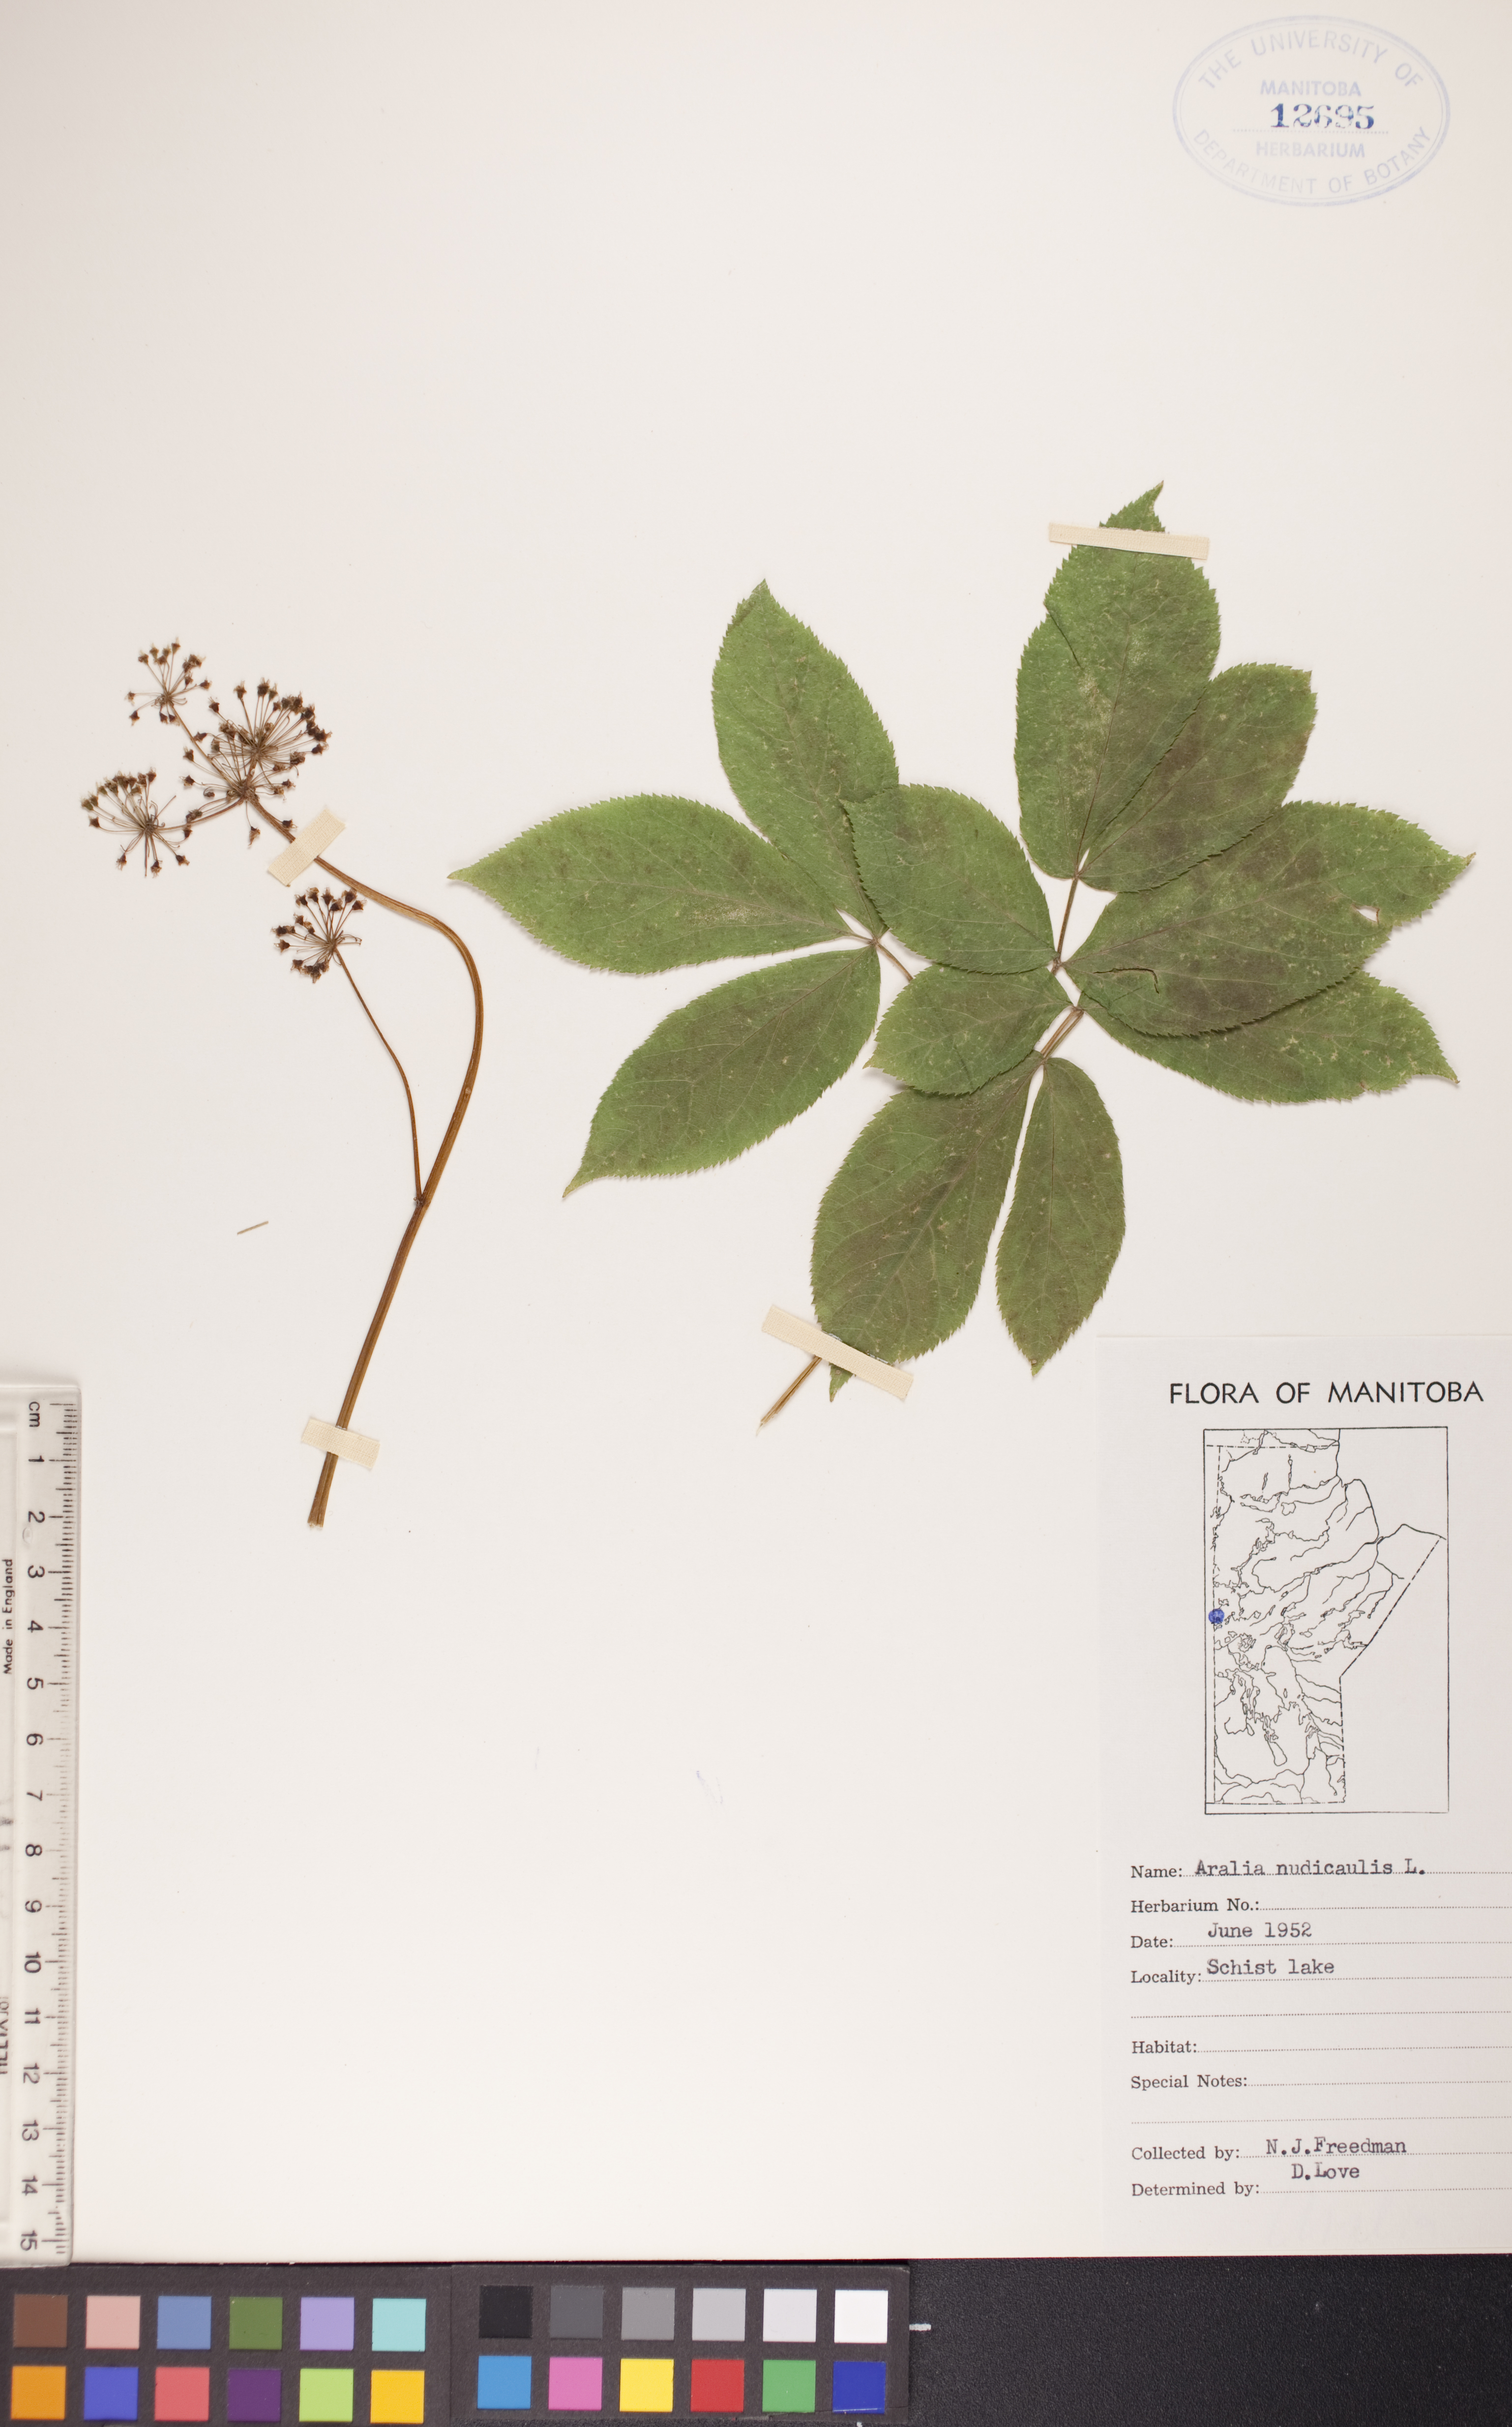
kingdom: Plantae
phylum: Tracheophyta
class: Magnoliopsida
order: Apiales
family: Araliaceae
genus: Aralia
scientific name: Aralia nudicaulis
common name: Wild sarsaparilla
